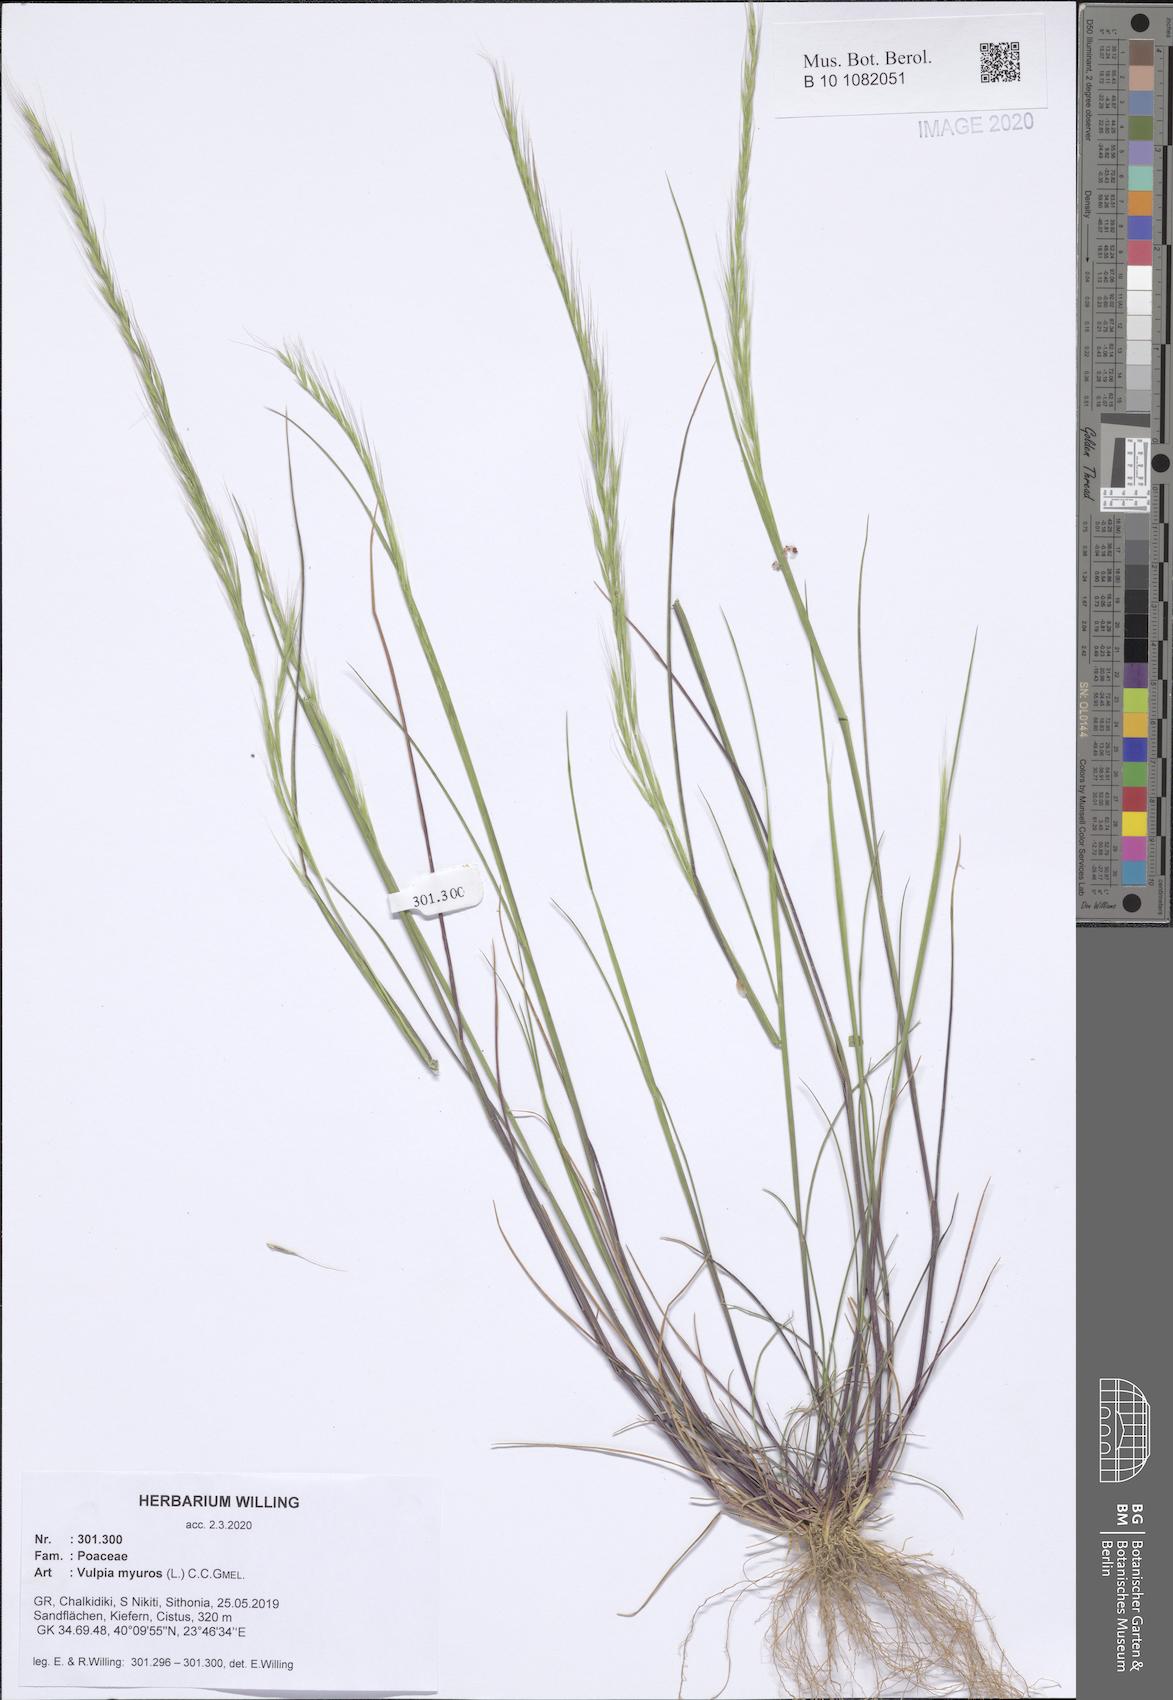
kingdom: Plantae
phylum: Tracheophyta
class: Liliopsida
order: Poales
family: Poaceae
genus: Festuca
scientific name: Festuca myuros
